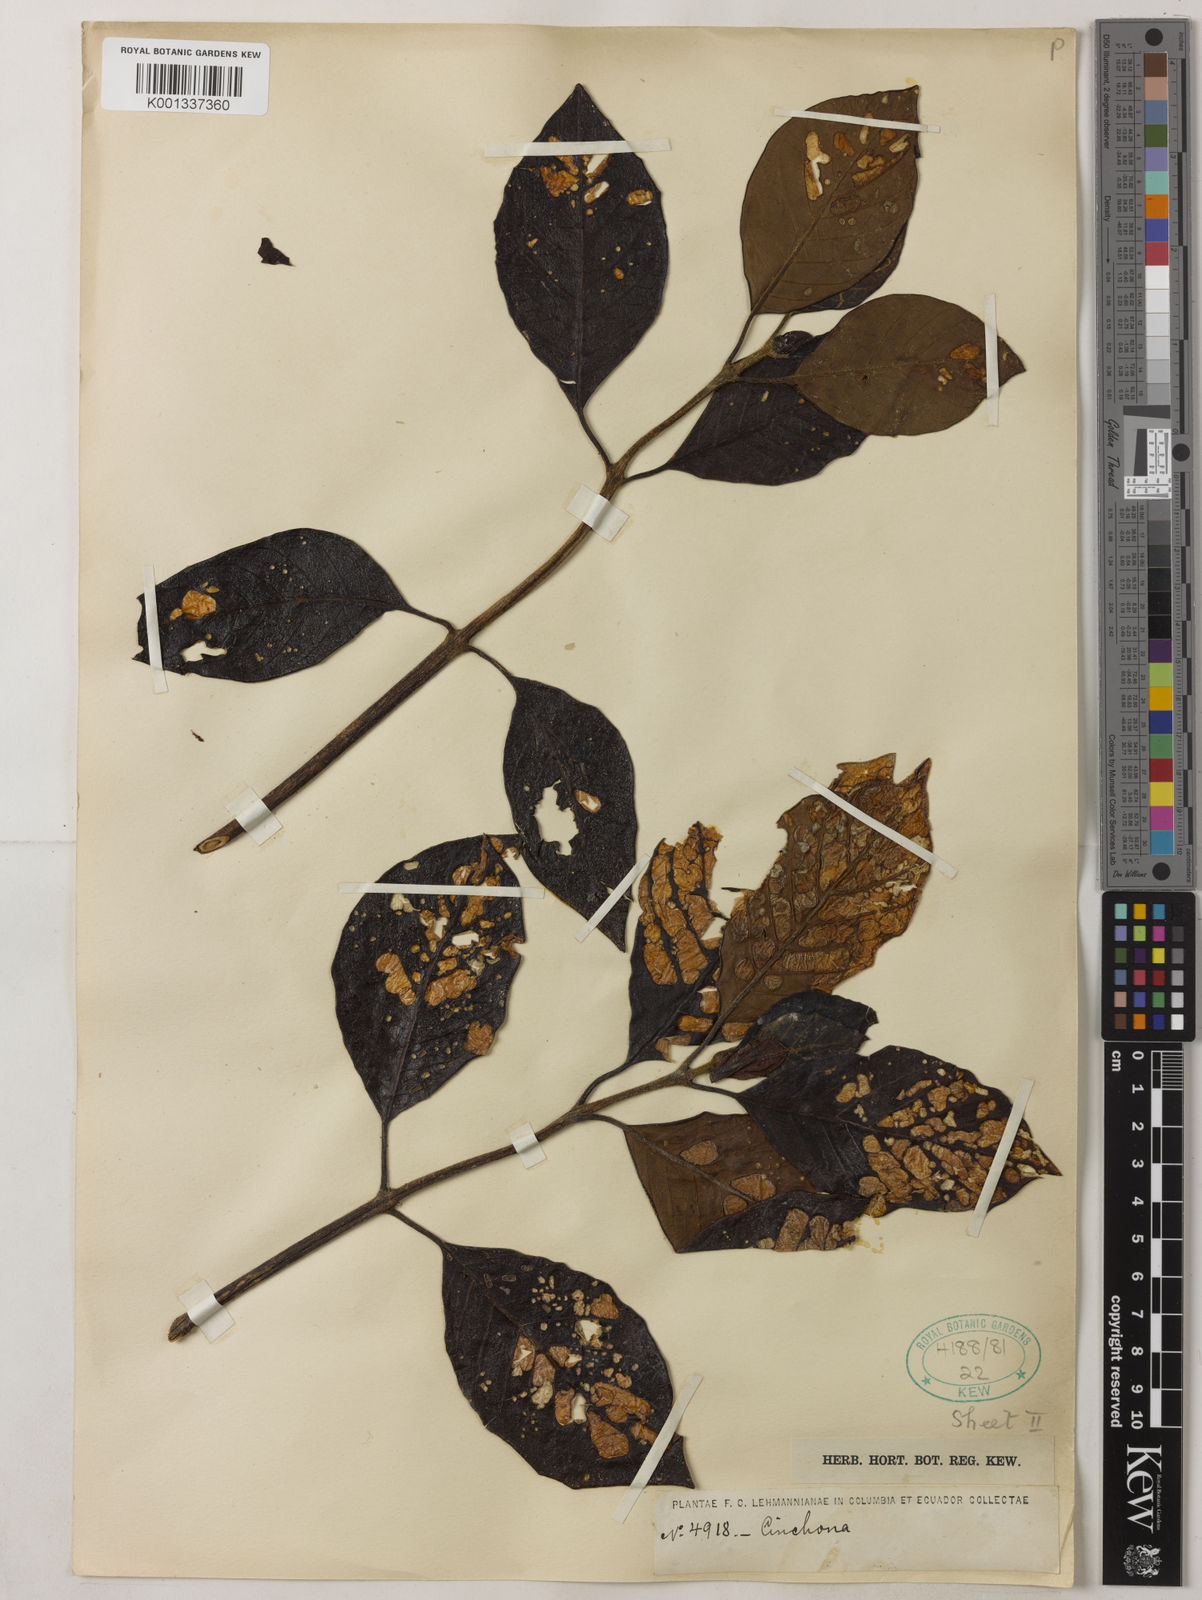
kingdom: Plantae
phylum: Tracheophyta
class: Magnoliopsida
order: Gentianales
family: Rubiaceae
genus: Cinchona
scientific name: Cinchona
